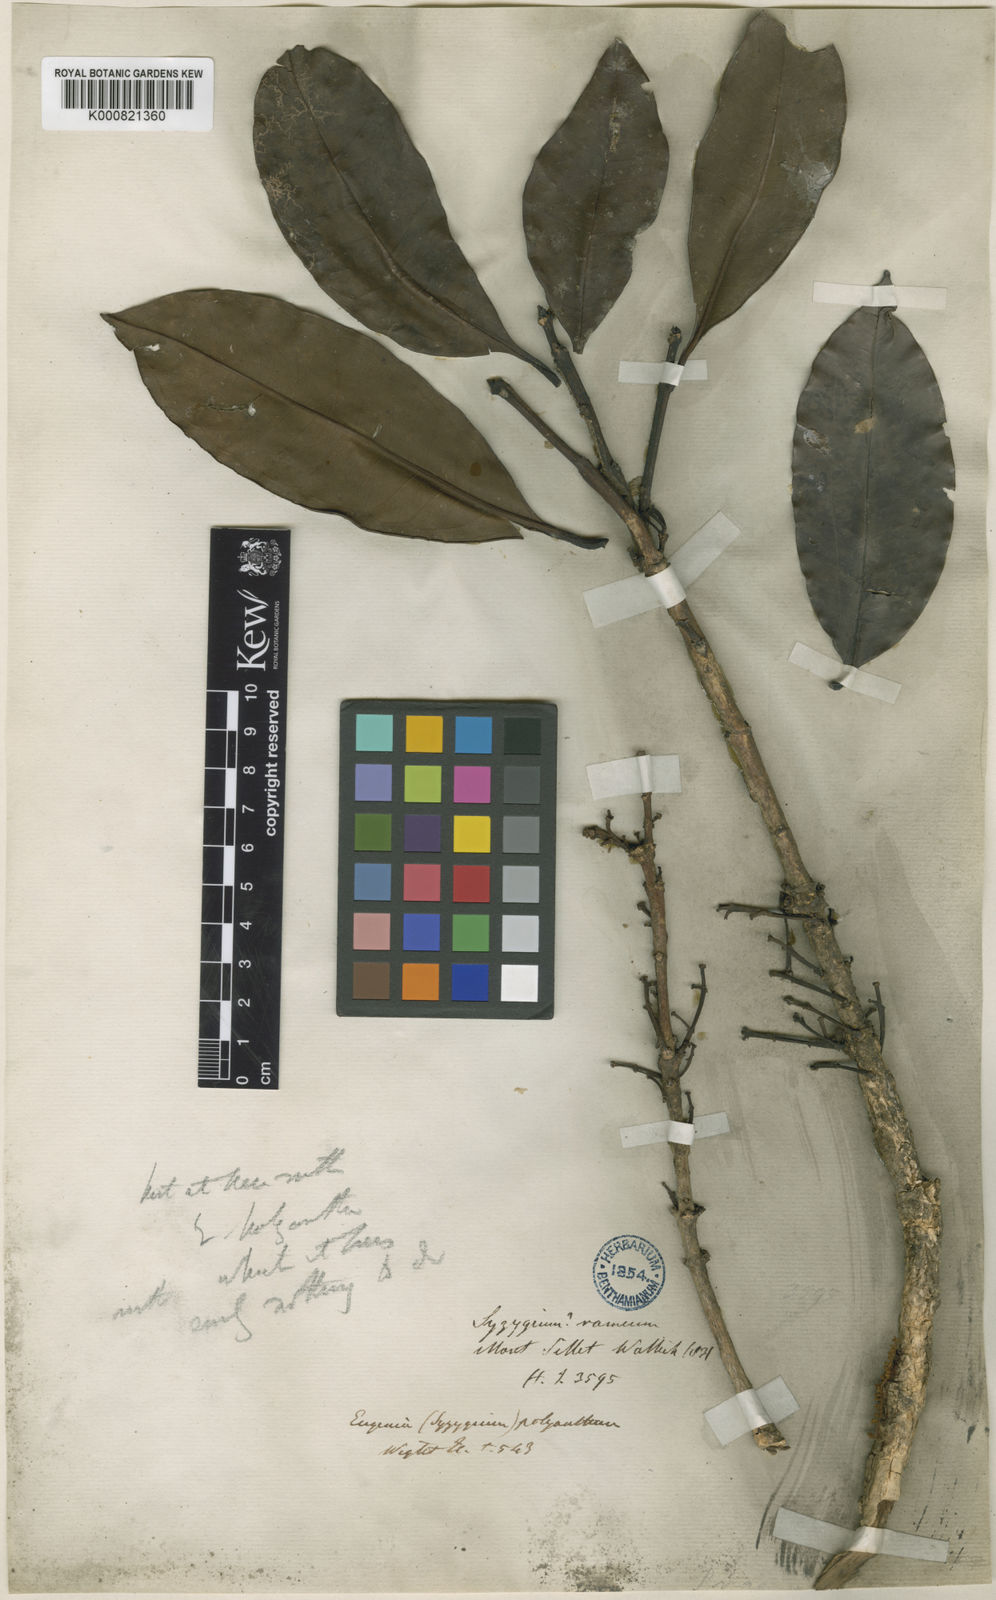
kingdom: Plantae
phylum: Tracheophyta
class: Magnoliopsida
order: Myrtales
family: Myrtaceae
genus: Syzygium
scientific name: Syzygium tetragonum
